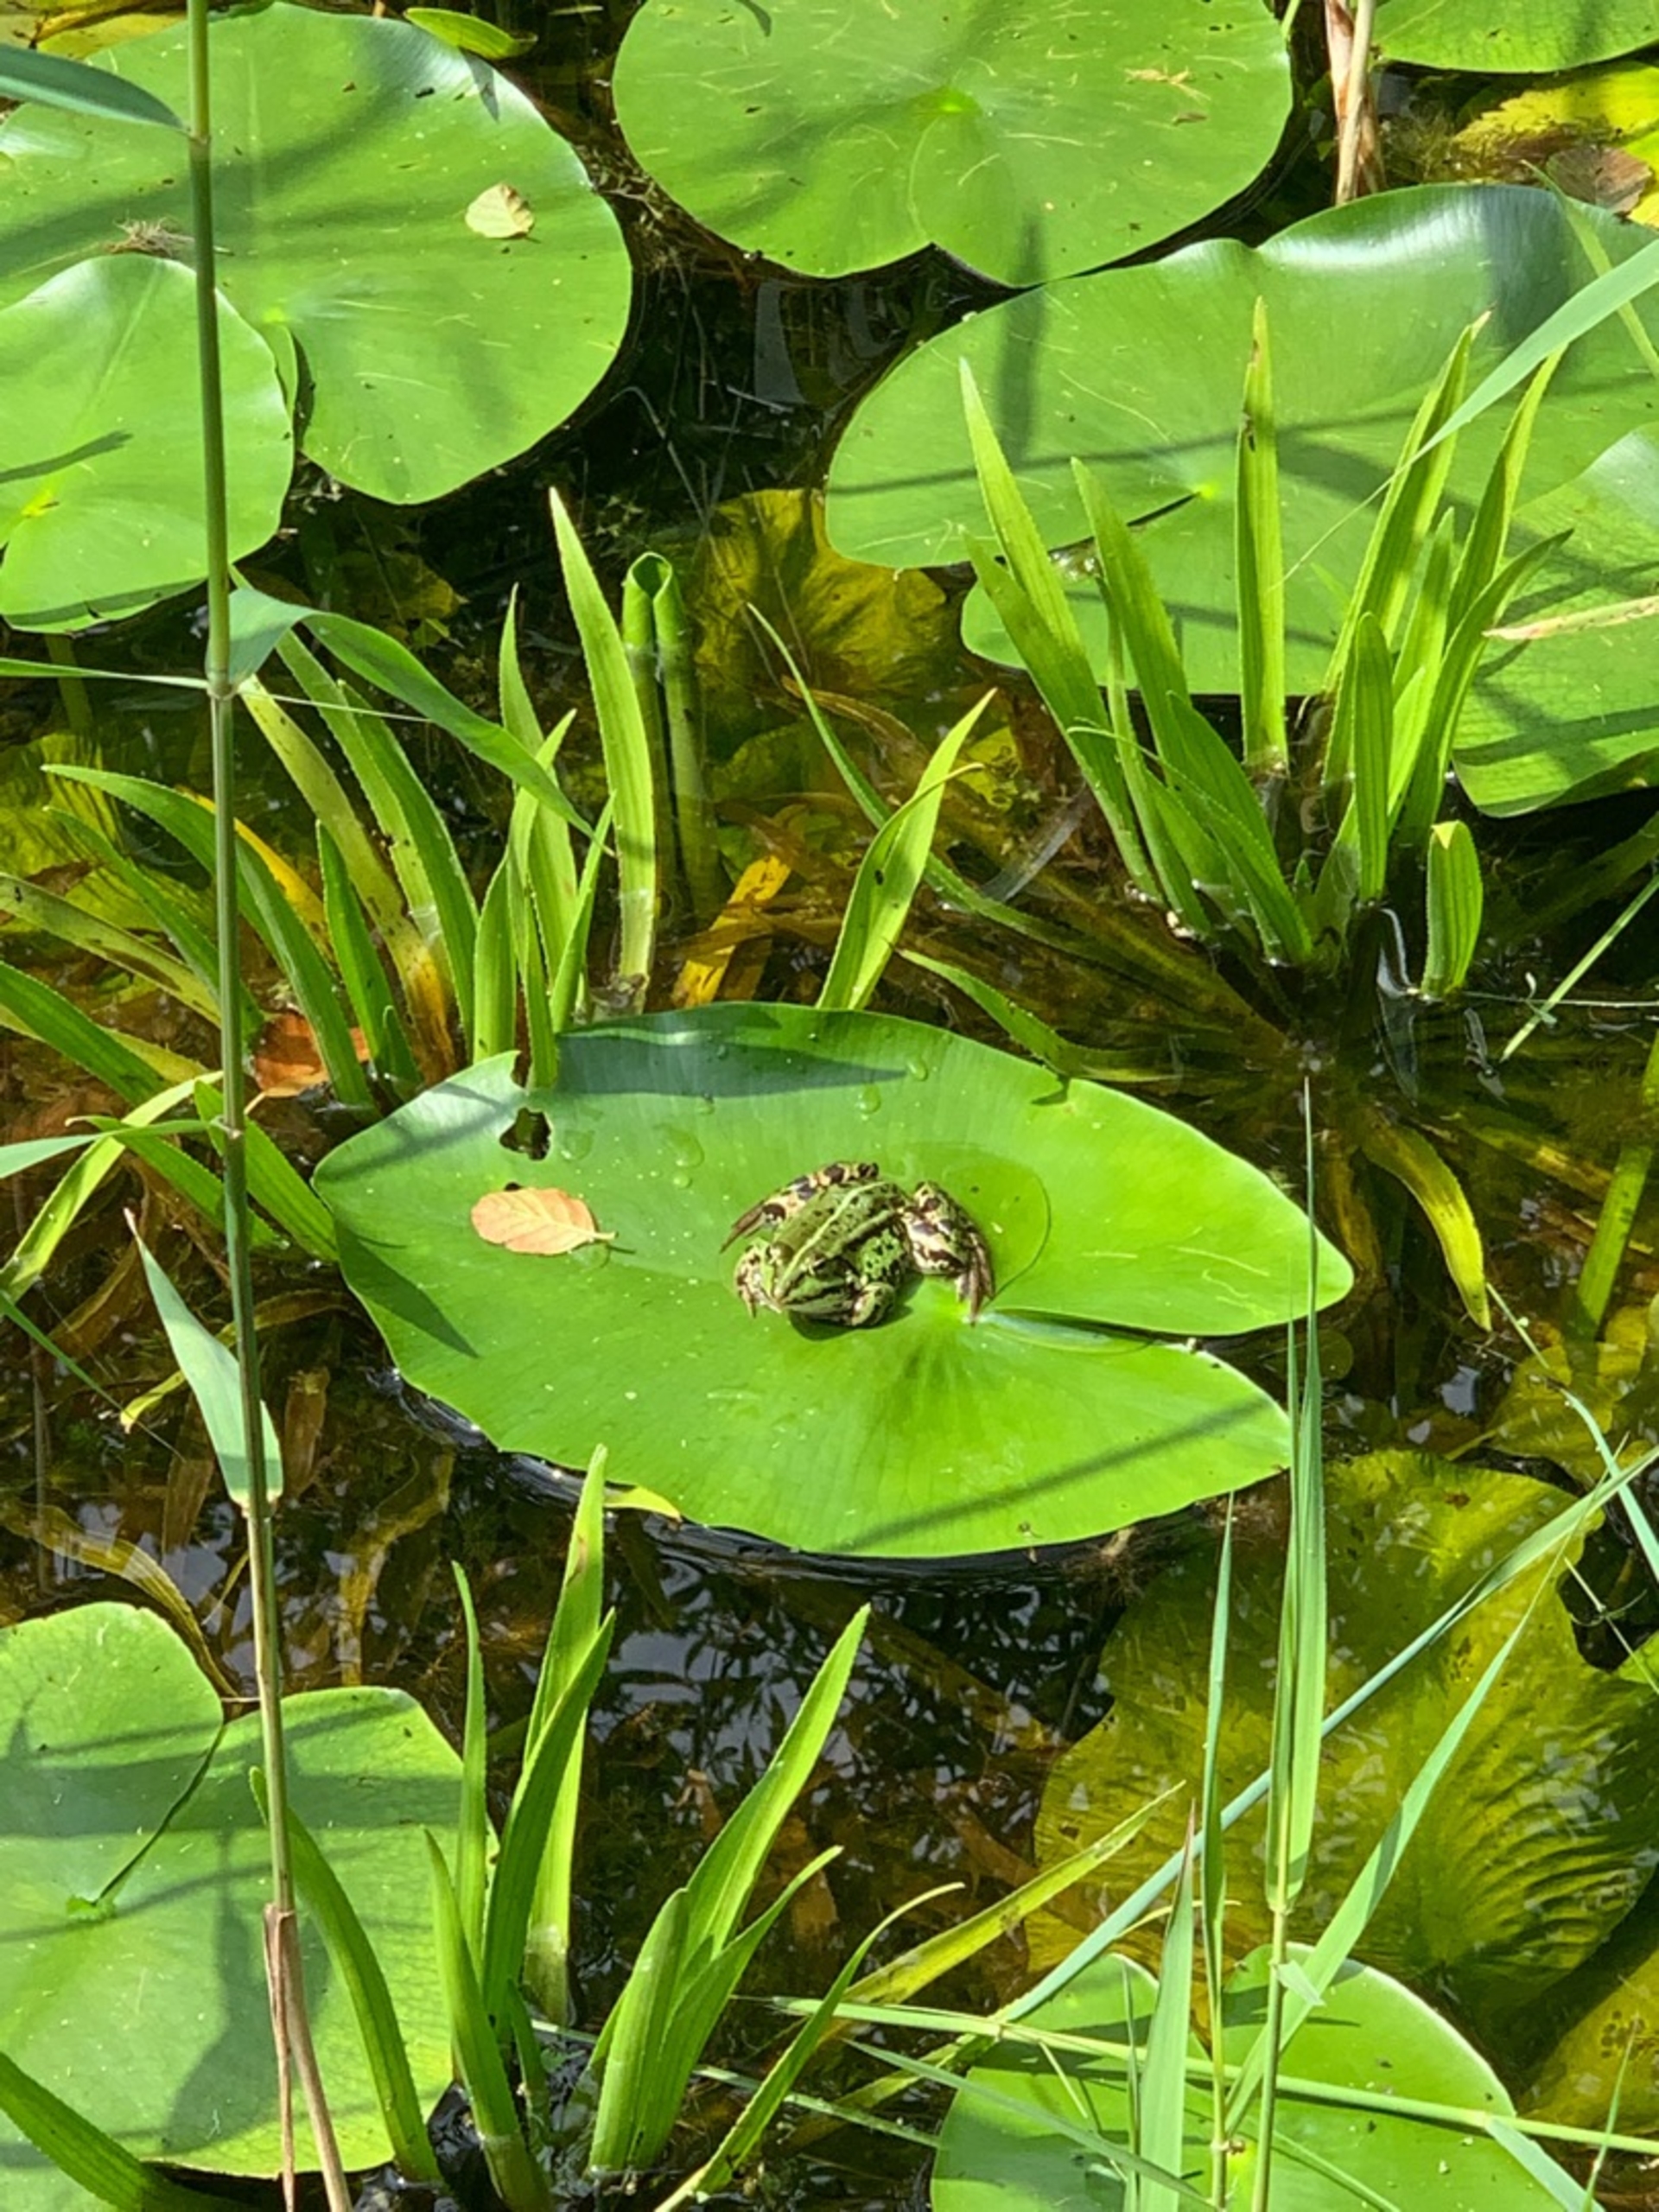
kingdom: Animalia
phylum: Chordata
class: Amphibia
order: Anura
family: Ranidae
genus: Pelophylax
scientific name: Pelophylax lessonae
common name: Grøn frø
